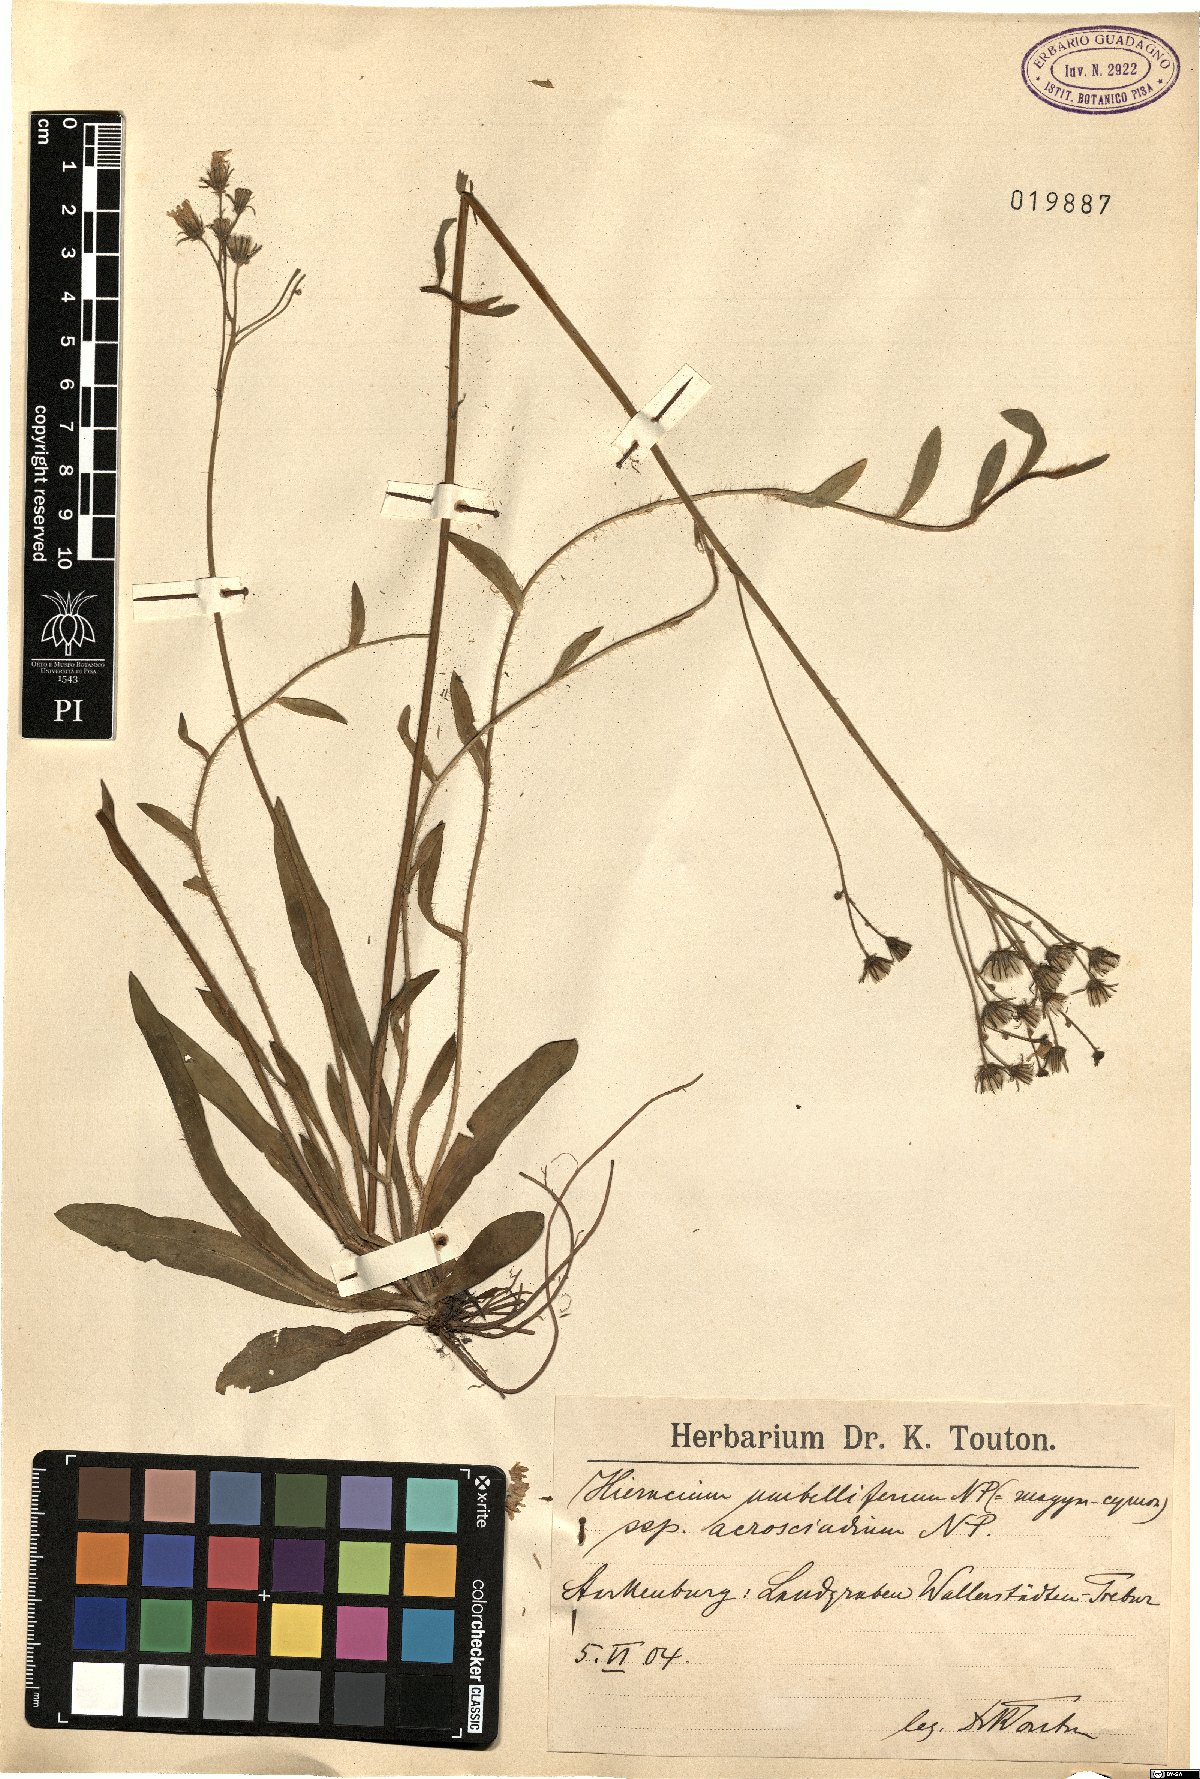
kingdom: Plantae
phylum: Tracheophyta
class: Magnoliopsida
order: Asterales
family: Asteraceae
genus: Pilosella
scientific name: Pilosella densiflora
